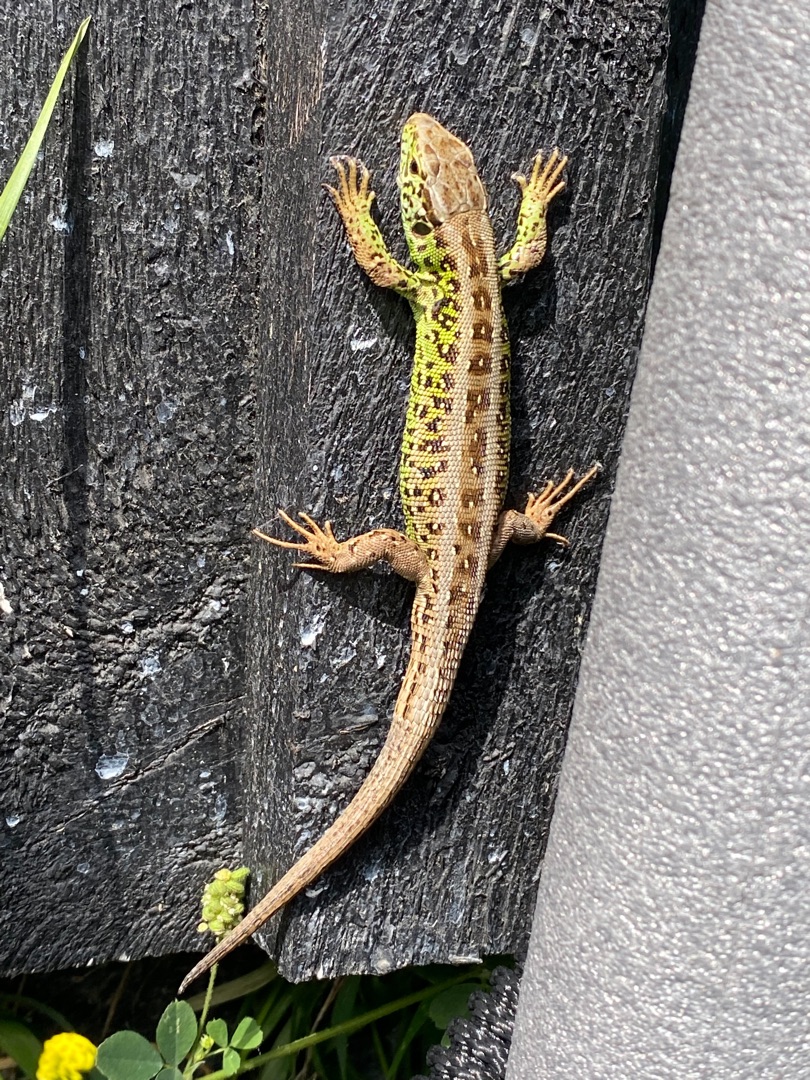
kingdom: Animalia
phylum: Chordata
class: Squamata
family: Lacertidae
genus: Lacerta
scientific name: Lacerta agilis
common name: Markfirben
